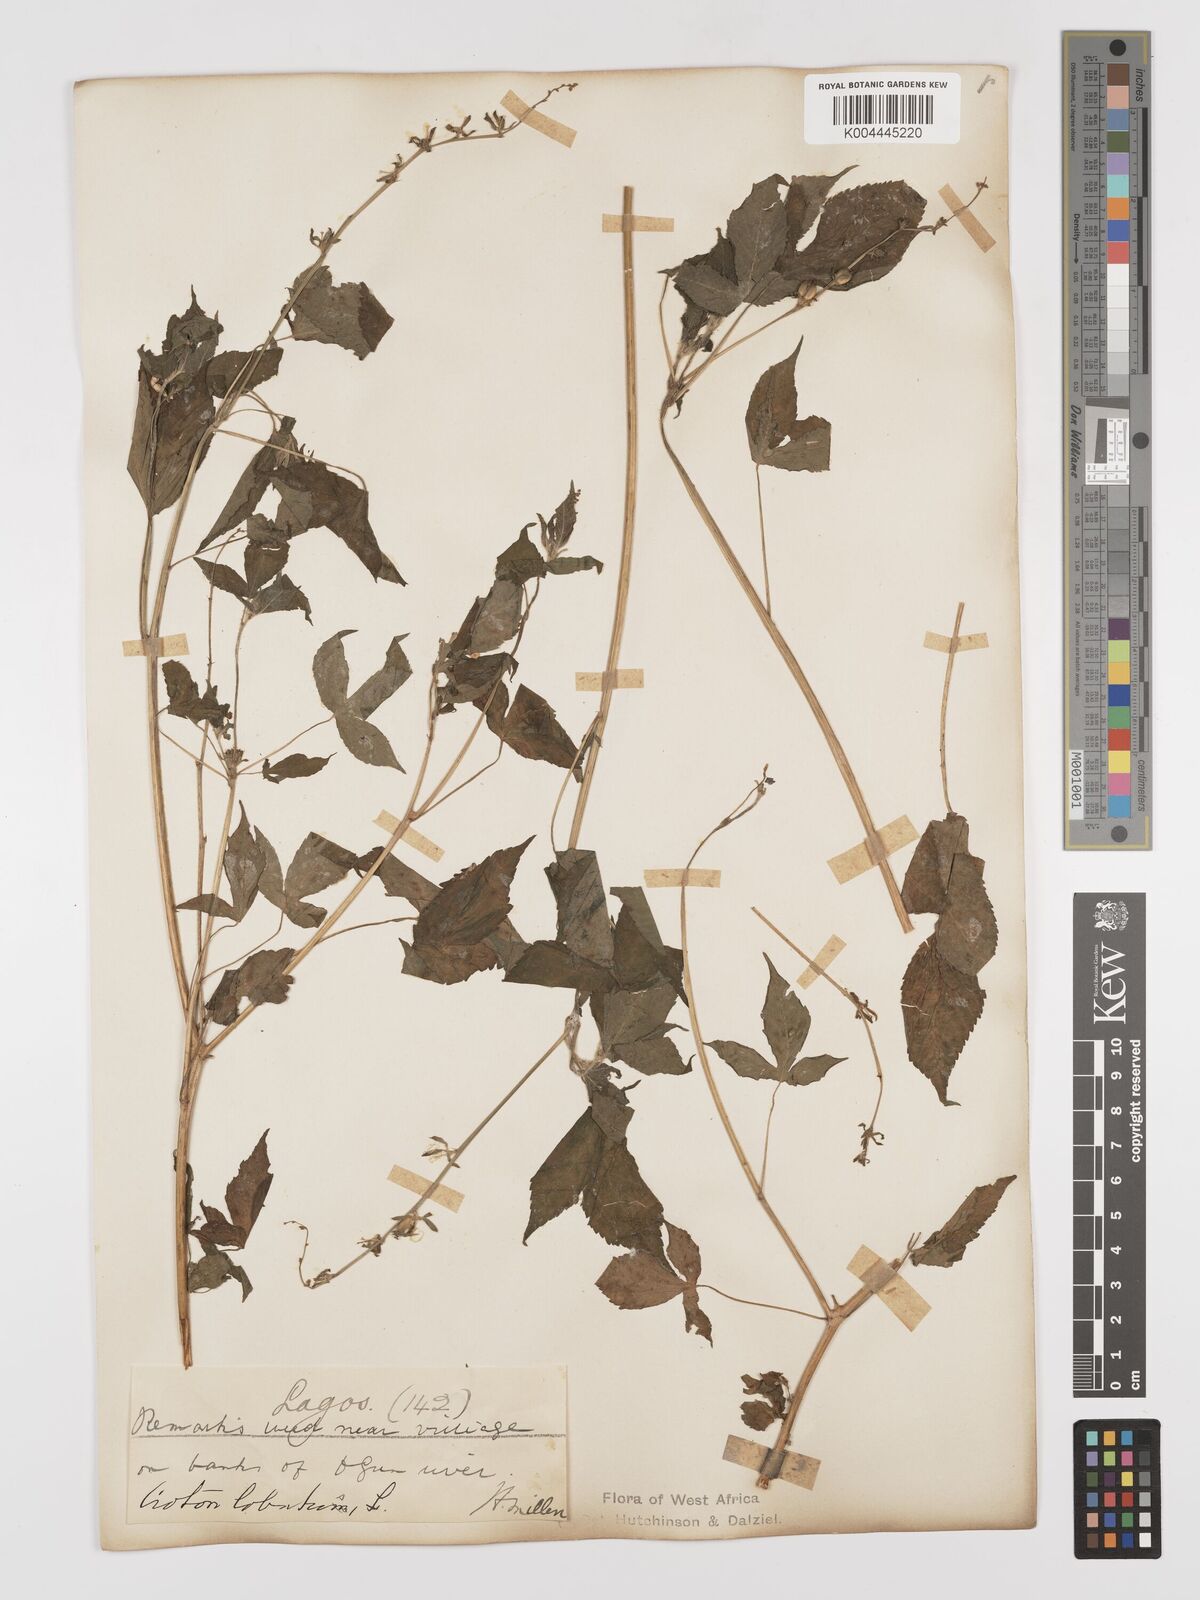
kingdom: Plantae
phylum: Tracheophyta
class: Magnoliopsida
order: Malpighiales
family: Euphorbiaceae
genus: Astraea
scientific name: Astraea lobata
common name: Lobed croton
